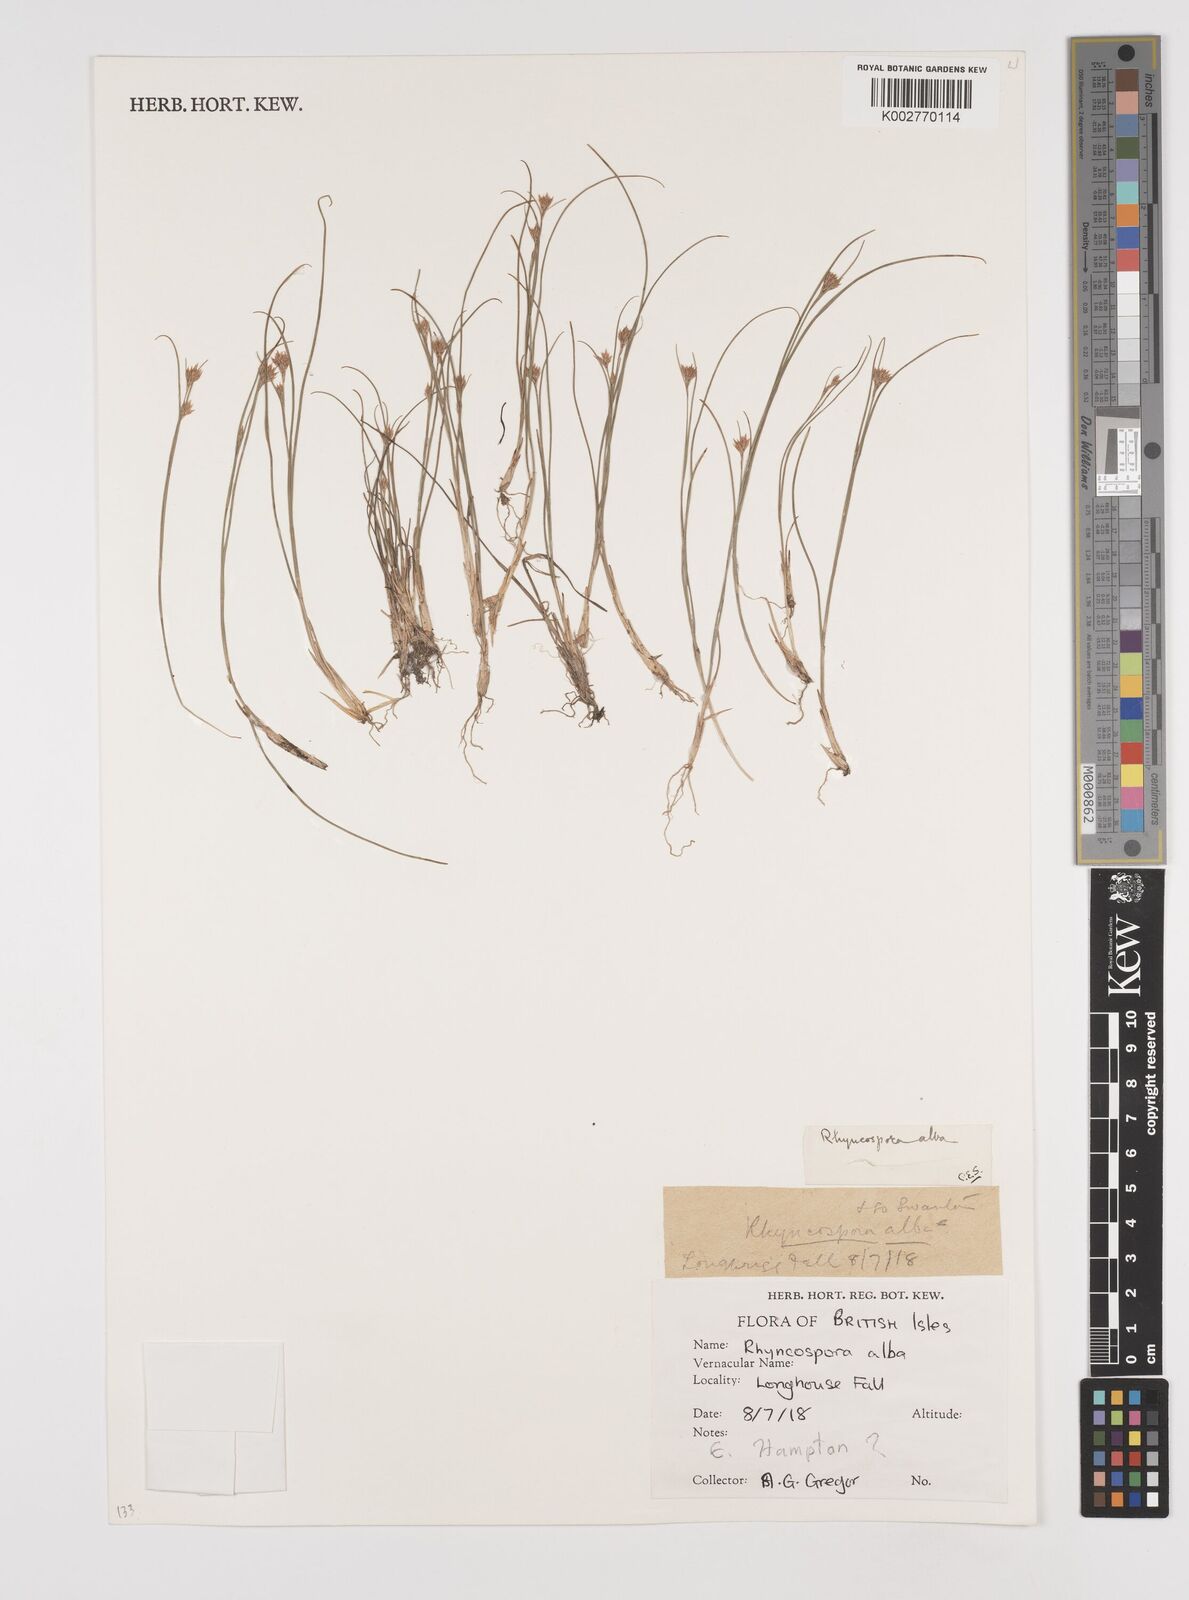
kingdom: Plantae
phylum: Tracheophyta
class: Liliopsida
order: Poales
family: Cyperaceae
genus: Rhynchospora
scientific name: Rhynchospora
